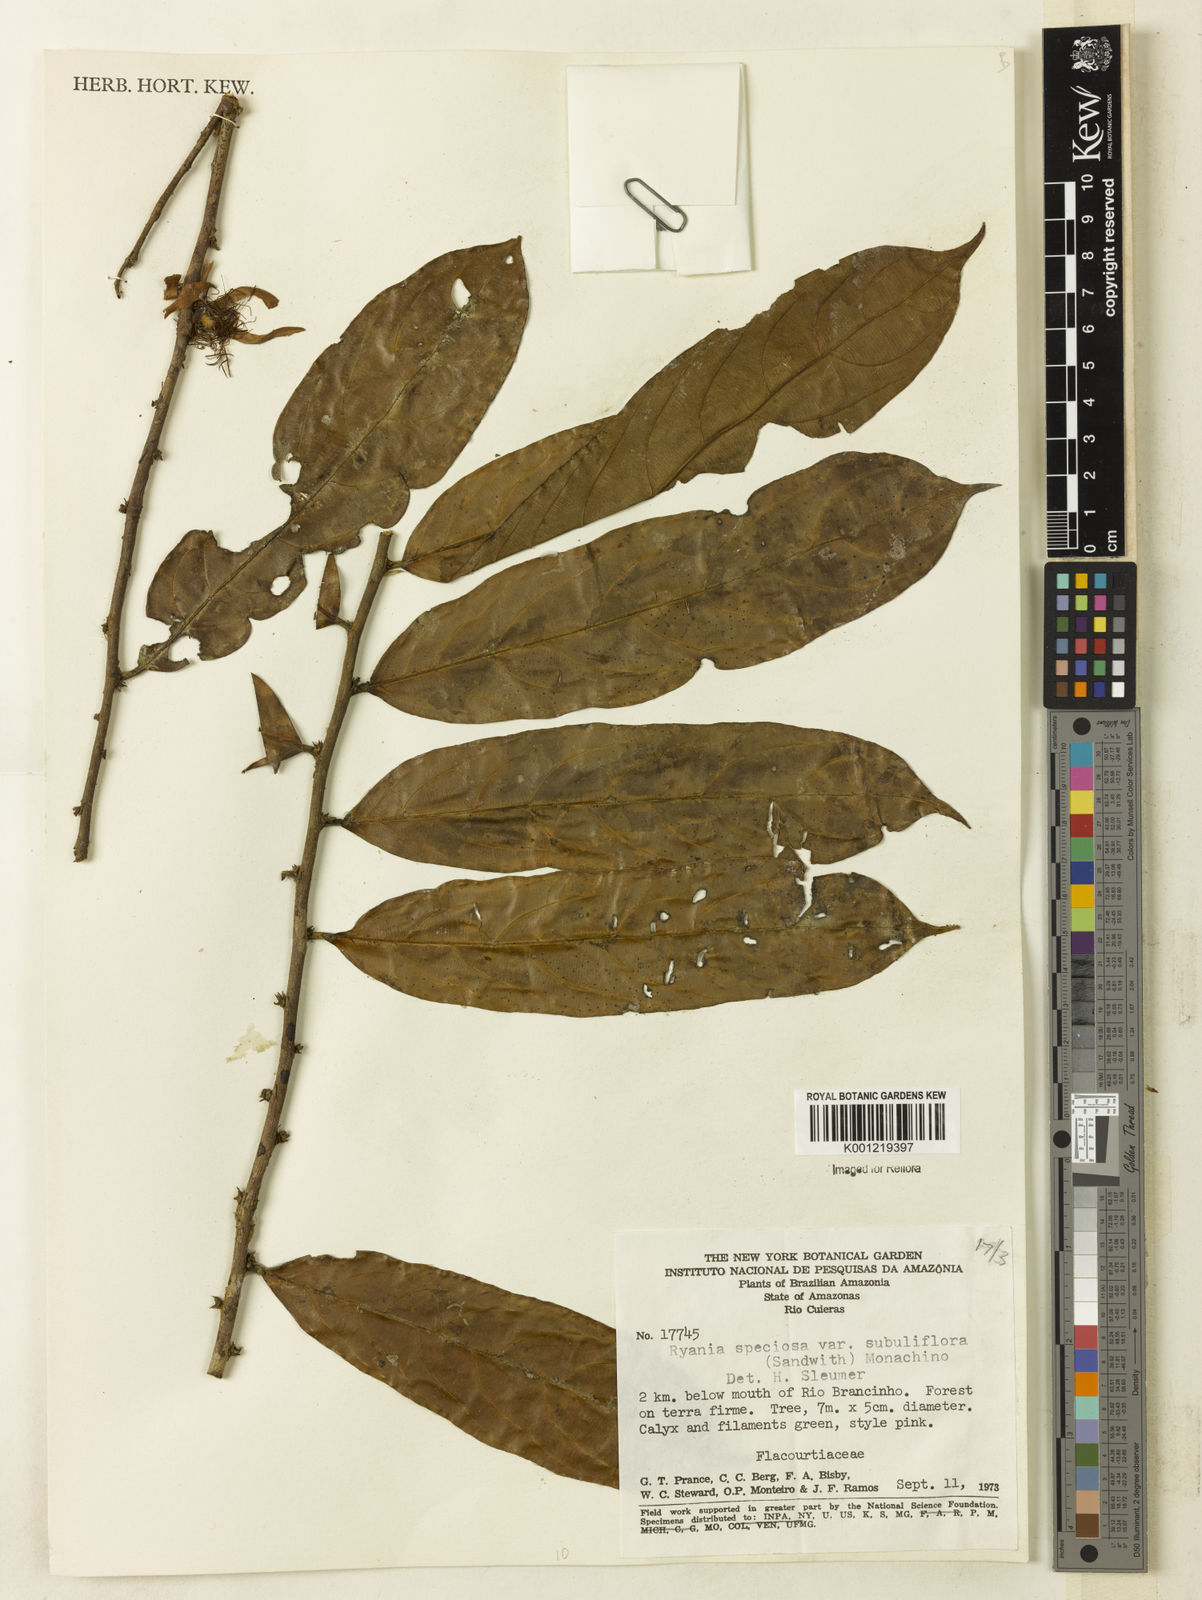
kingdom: Plantae
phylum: Tracheophyta
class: Magnoliopsida
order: Malpighiales
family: Salicaceae
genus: Ryania
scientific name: Ryania speciosa
